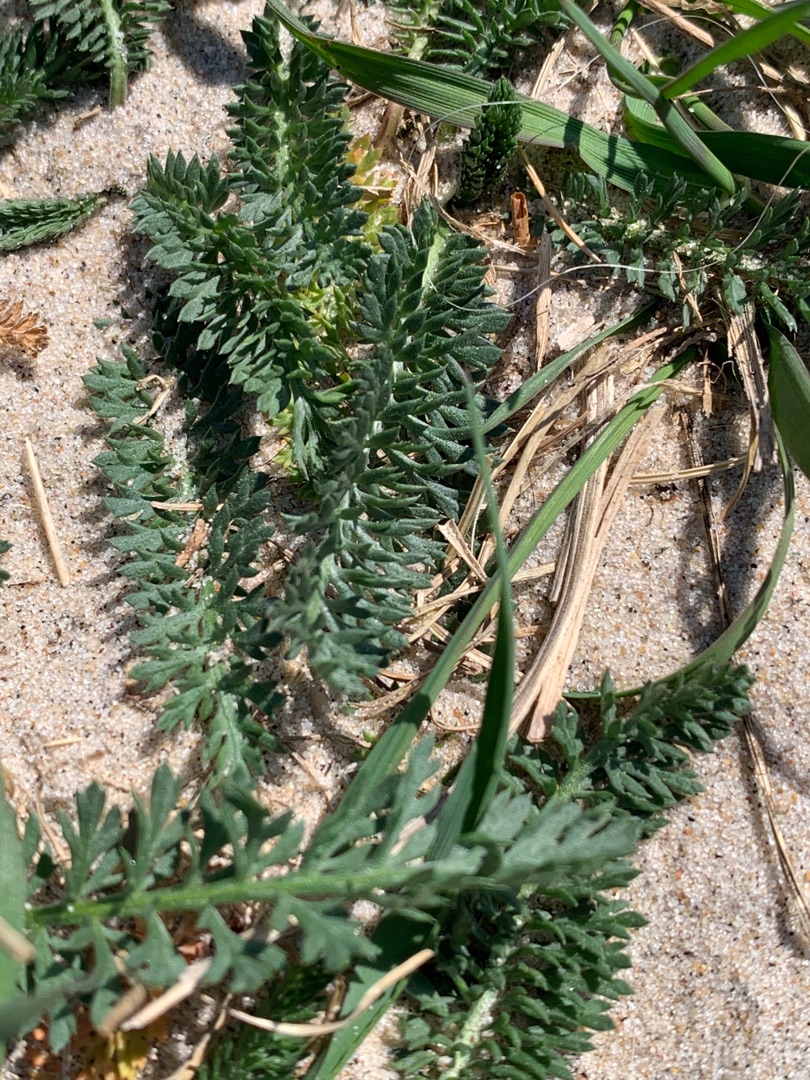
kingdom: Plantae
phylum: Tracheophyta
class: Magnoliopsida
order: Asterales
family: Asteraceae
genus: Achillea
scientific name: Achillea millefolium
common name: Almindelig røllike
